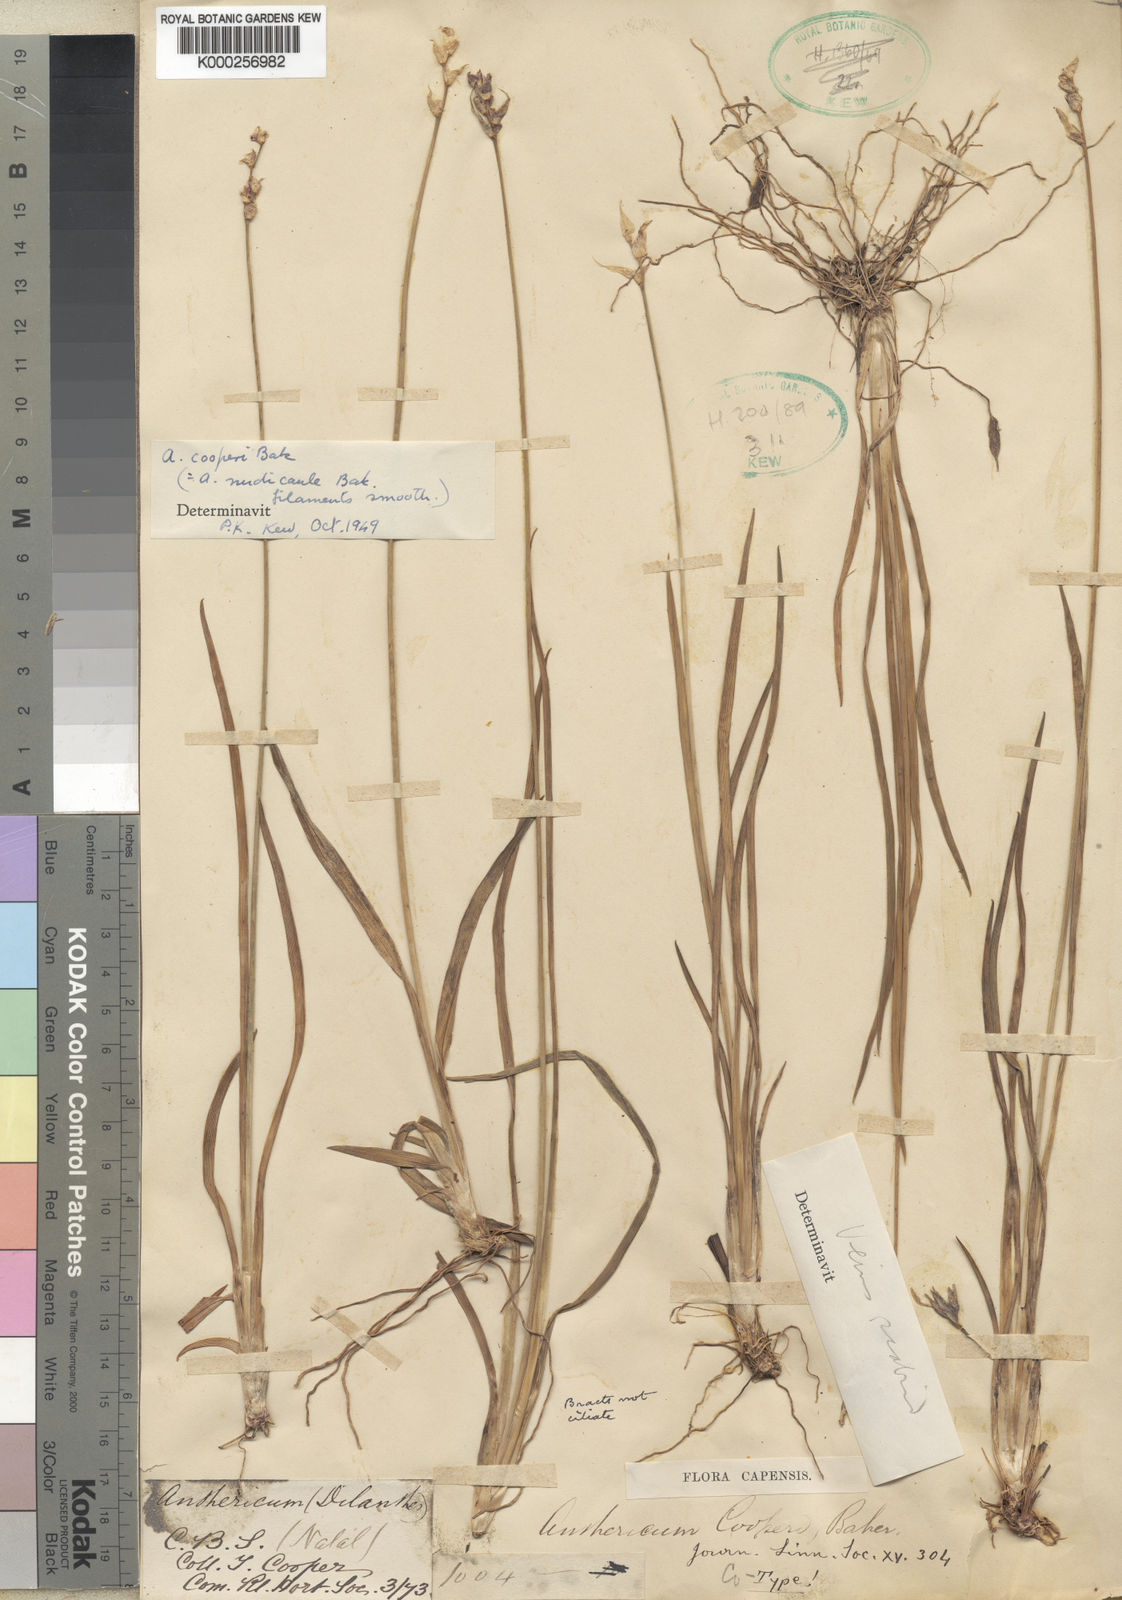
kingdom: Plantae
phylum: Tracheophyta
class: Liliopsida
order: Asparagales
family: Asparagaceae
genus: Chlorophytum
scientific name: Chlorophytum cooperi
